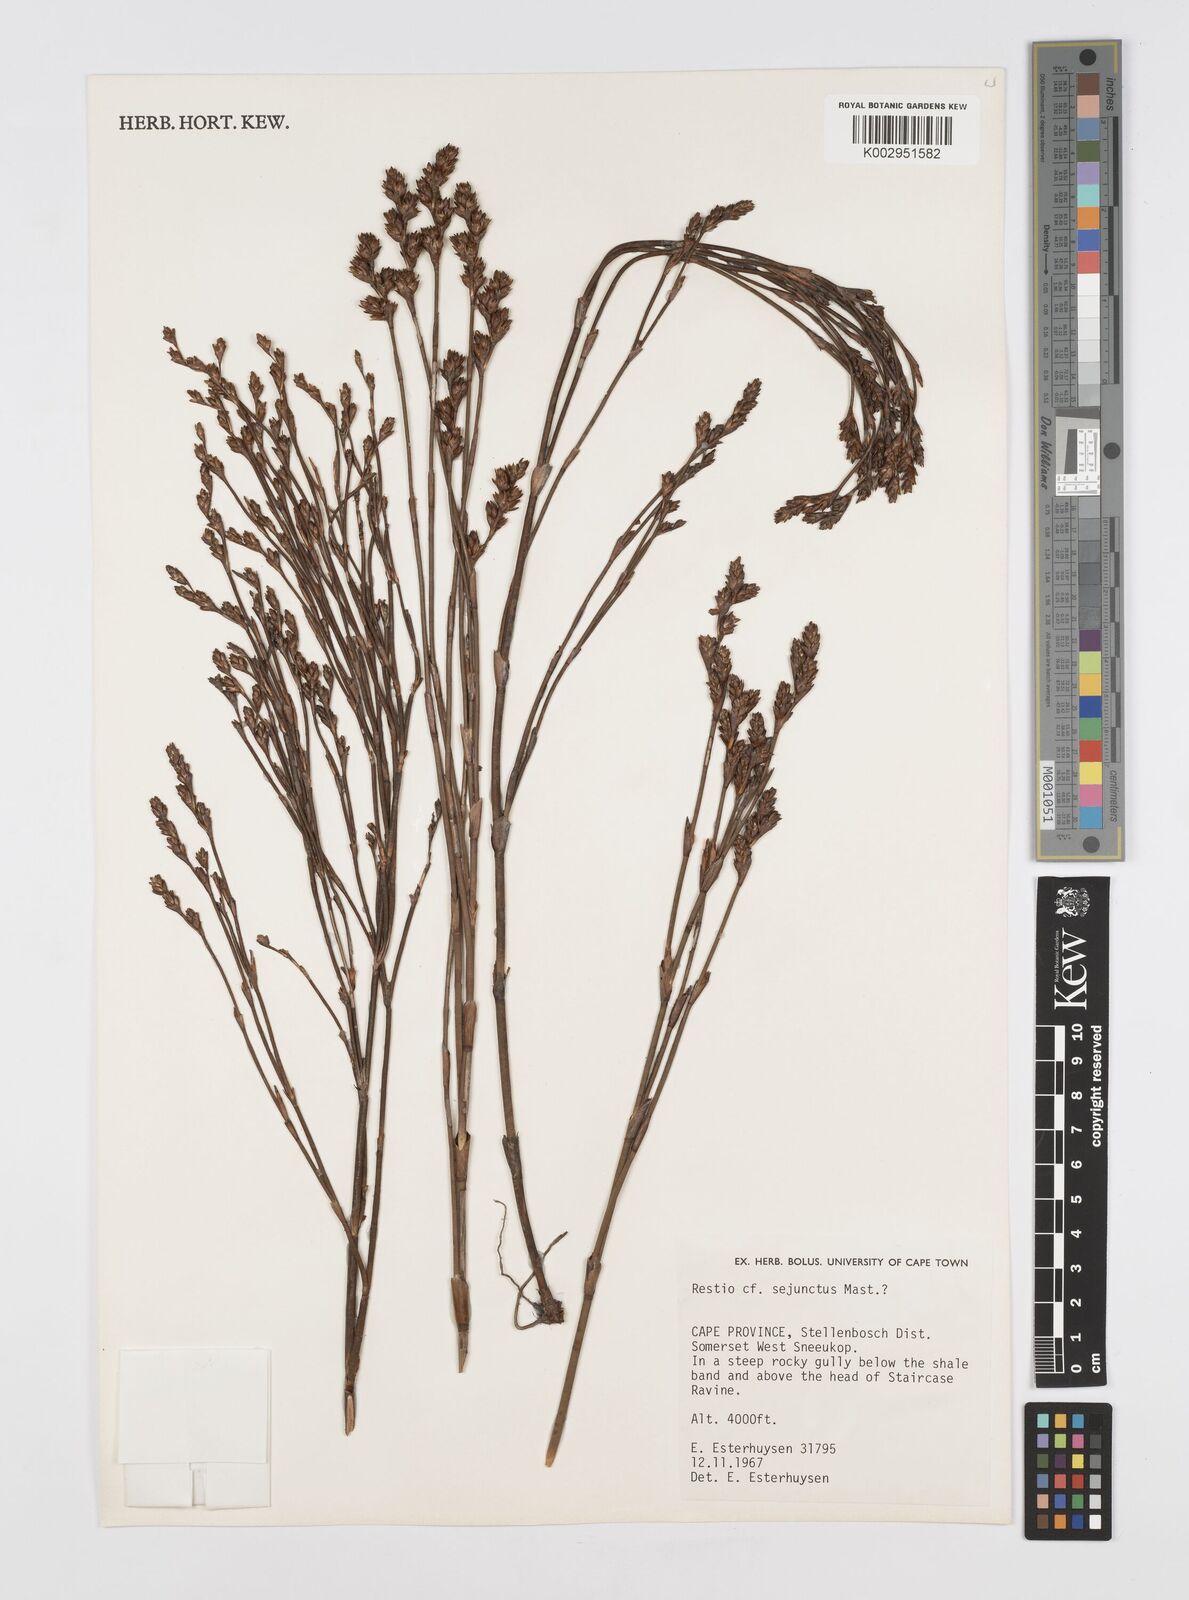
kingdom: Plantae
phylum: Tracheophyta
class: Liliopsida
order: Poales
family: Restionaceae
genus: Restio
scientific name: Restio sejunctus
